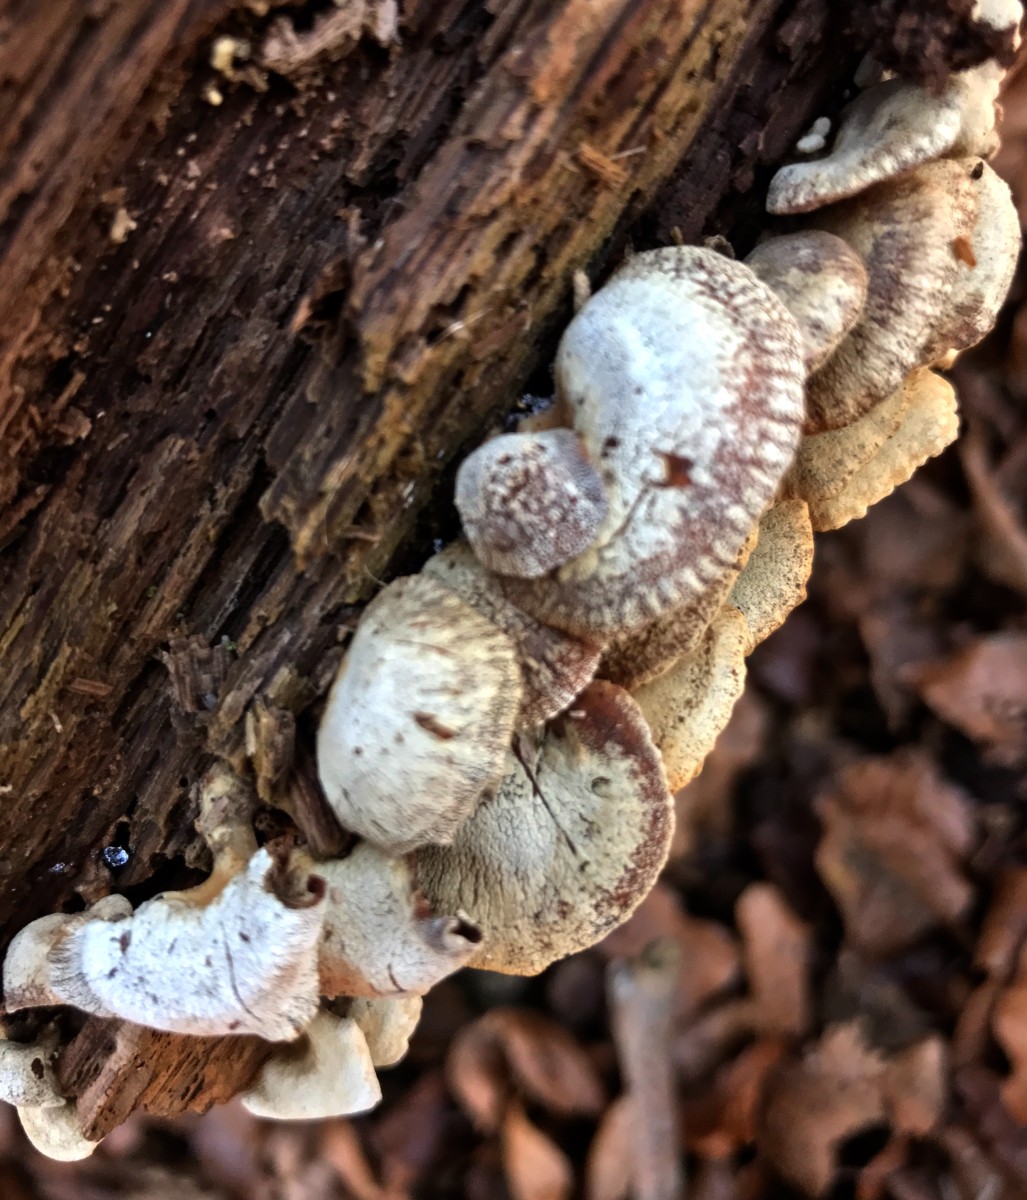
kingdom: Fungi
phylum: Basidiomycota
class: Agaricomycetes
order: Agaricales
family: Mycenaceae
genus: Panellus
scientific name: Panellus stipticus
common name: kliddet epaulethat
